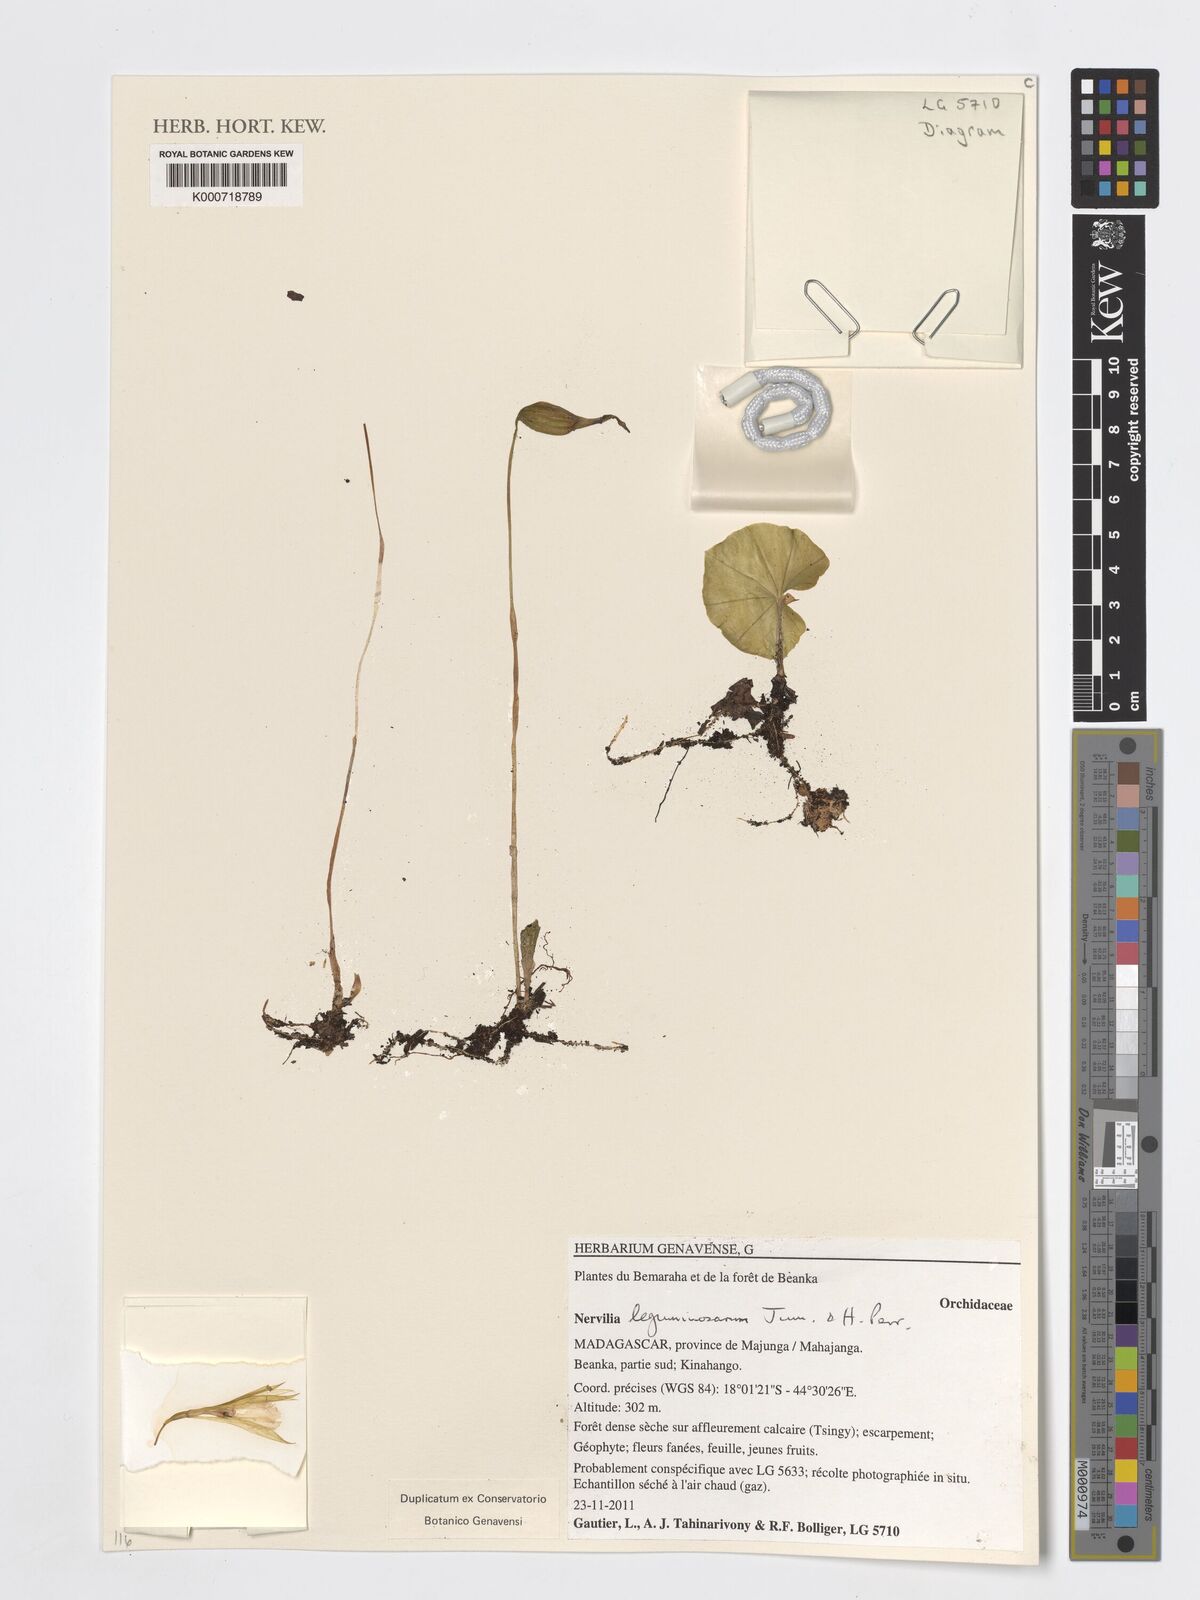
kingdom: Plantae
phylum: Tracheophyta
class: Liliopsida
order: Asparagales
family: Orchidaceae
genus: Nervilia
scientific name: Nervilia leguminosarum
